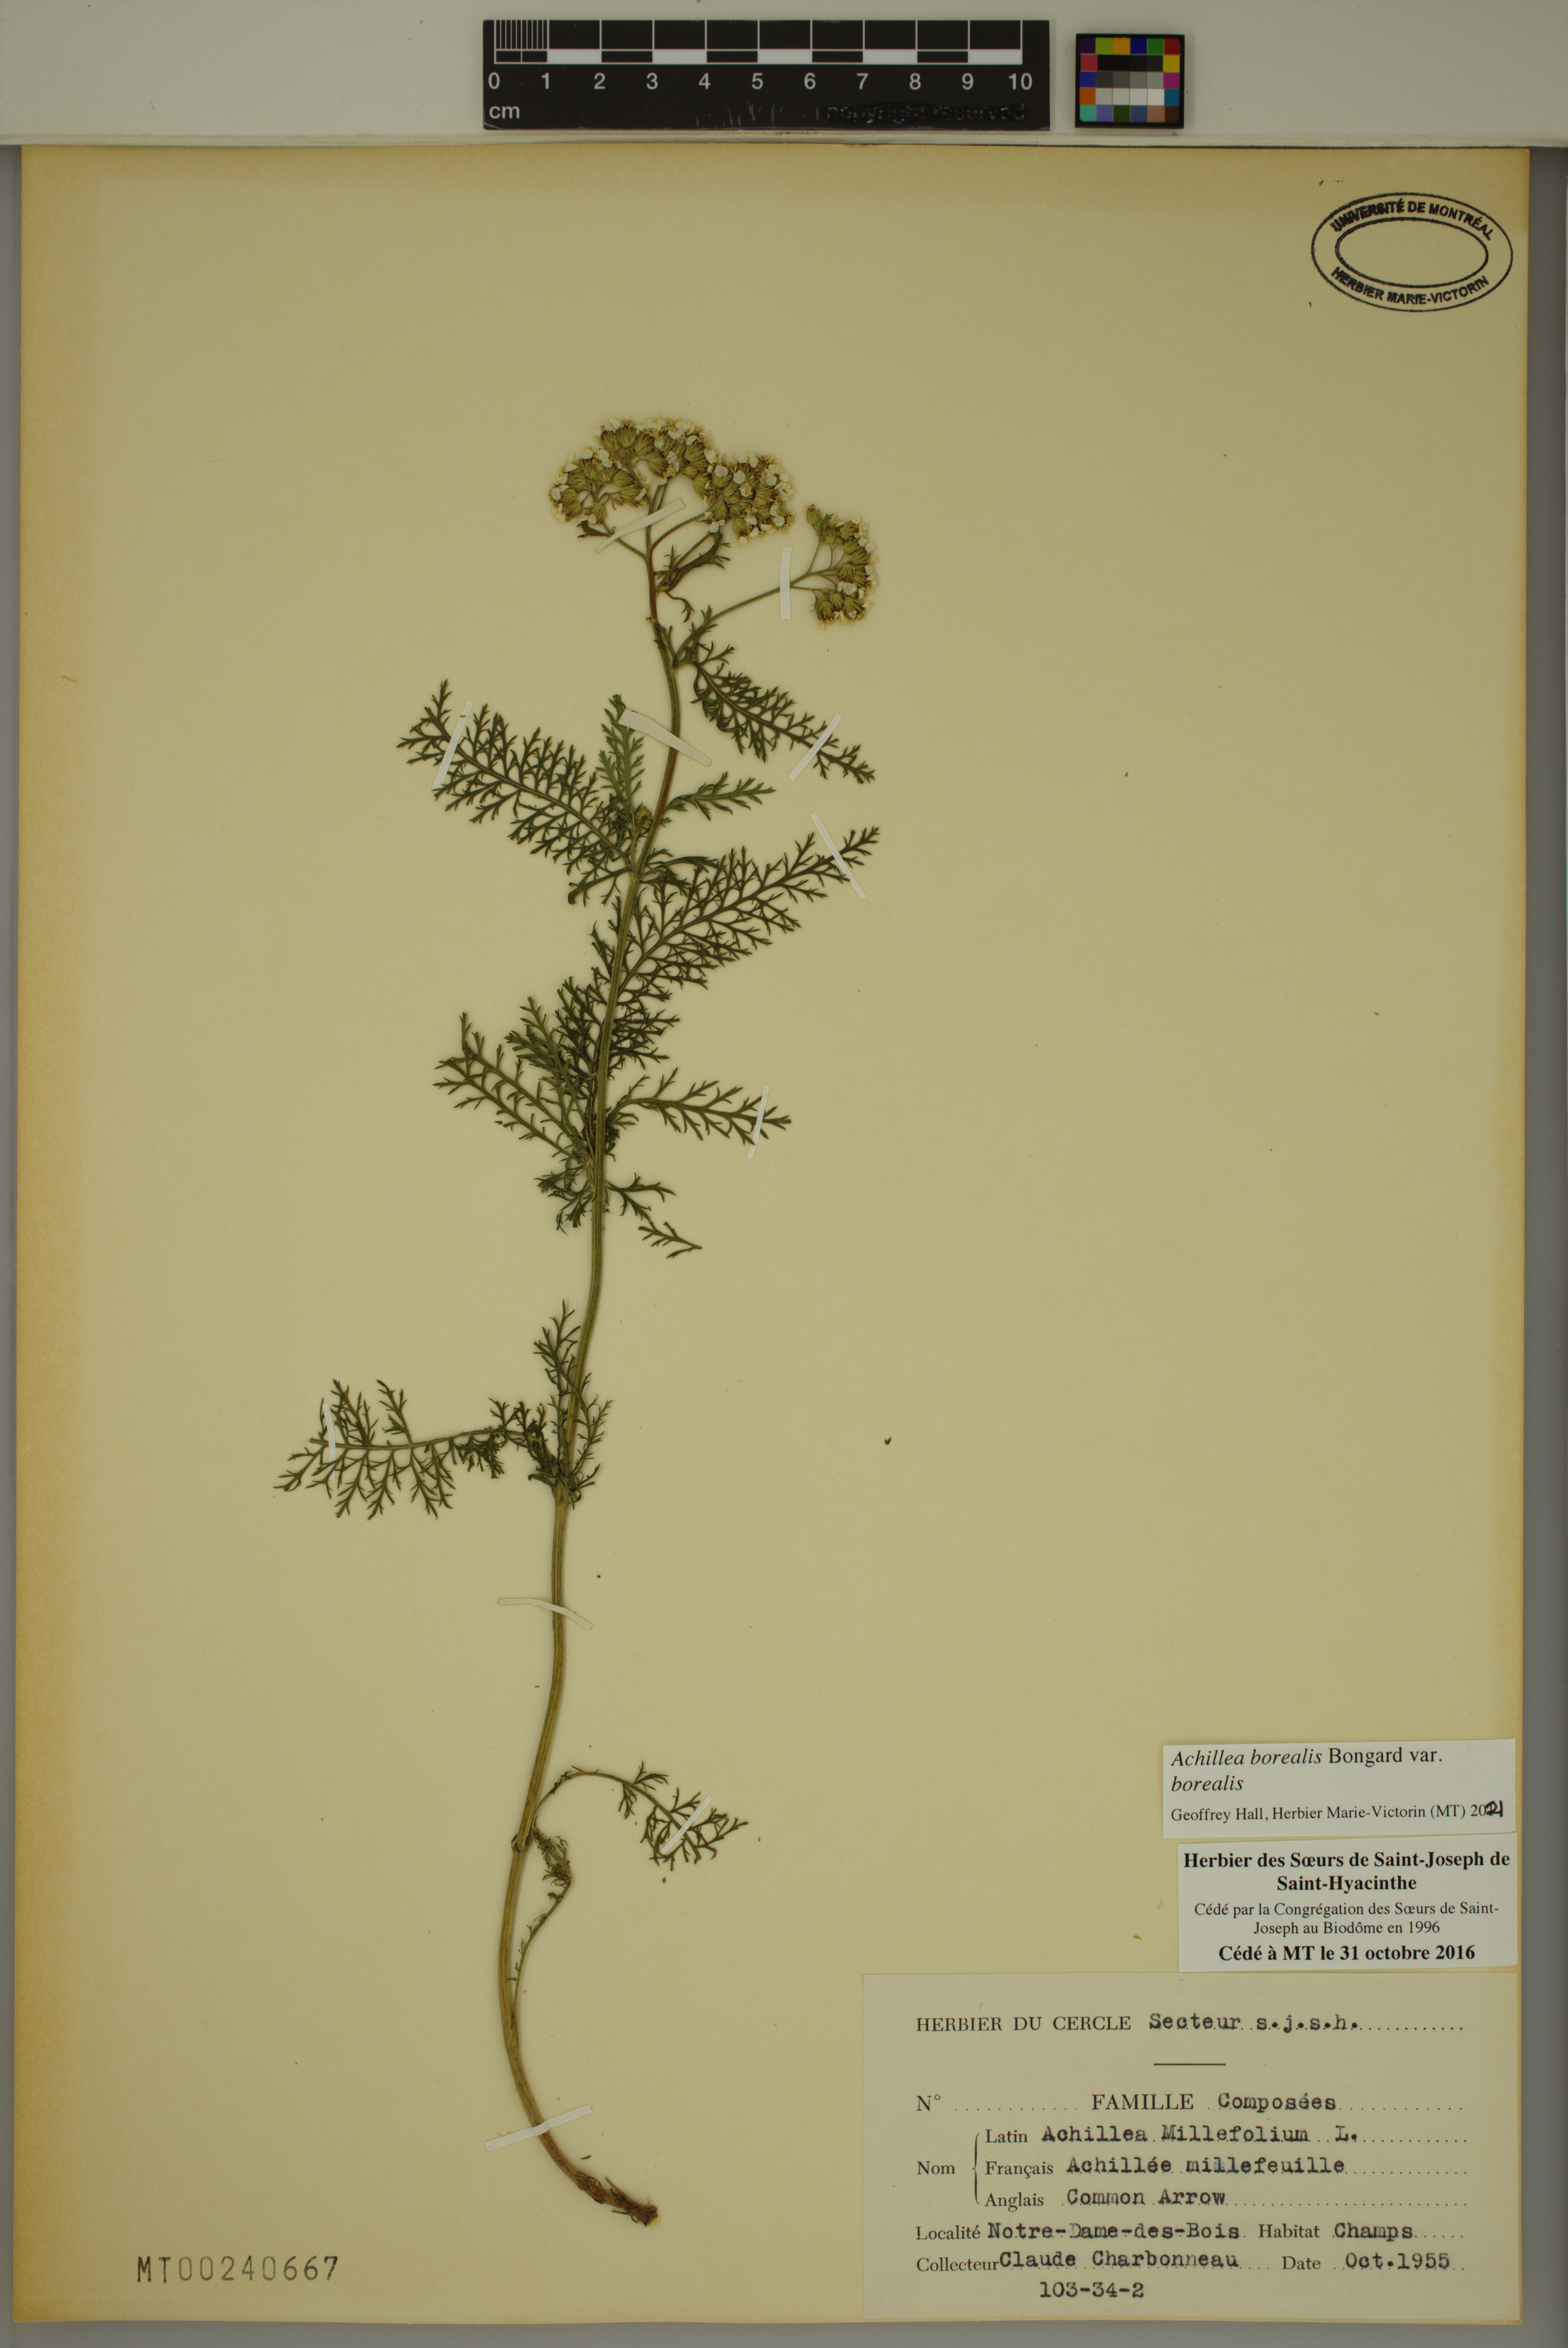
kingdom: Plantae
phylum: Tracheophyta
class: Magnoliopsida
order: Asterales
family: Asteraceae
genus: Achillea
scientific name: Achillea millefolium
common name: Yarrow
